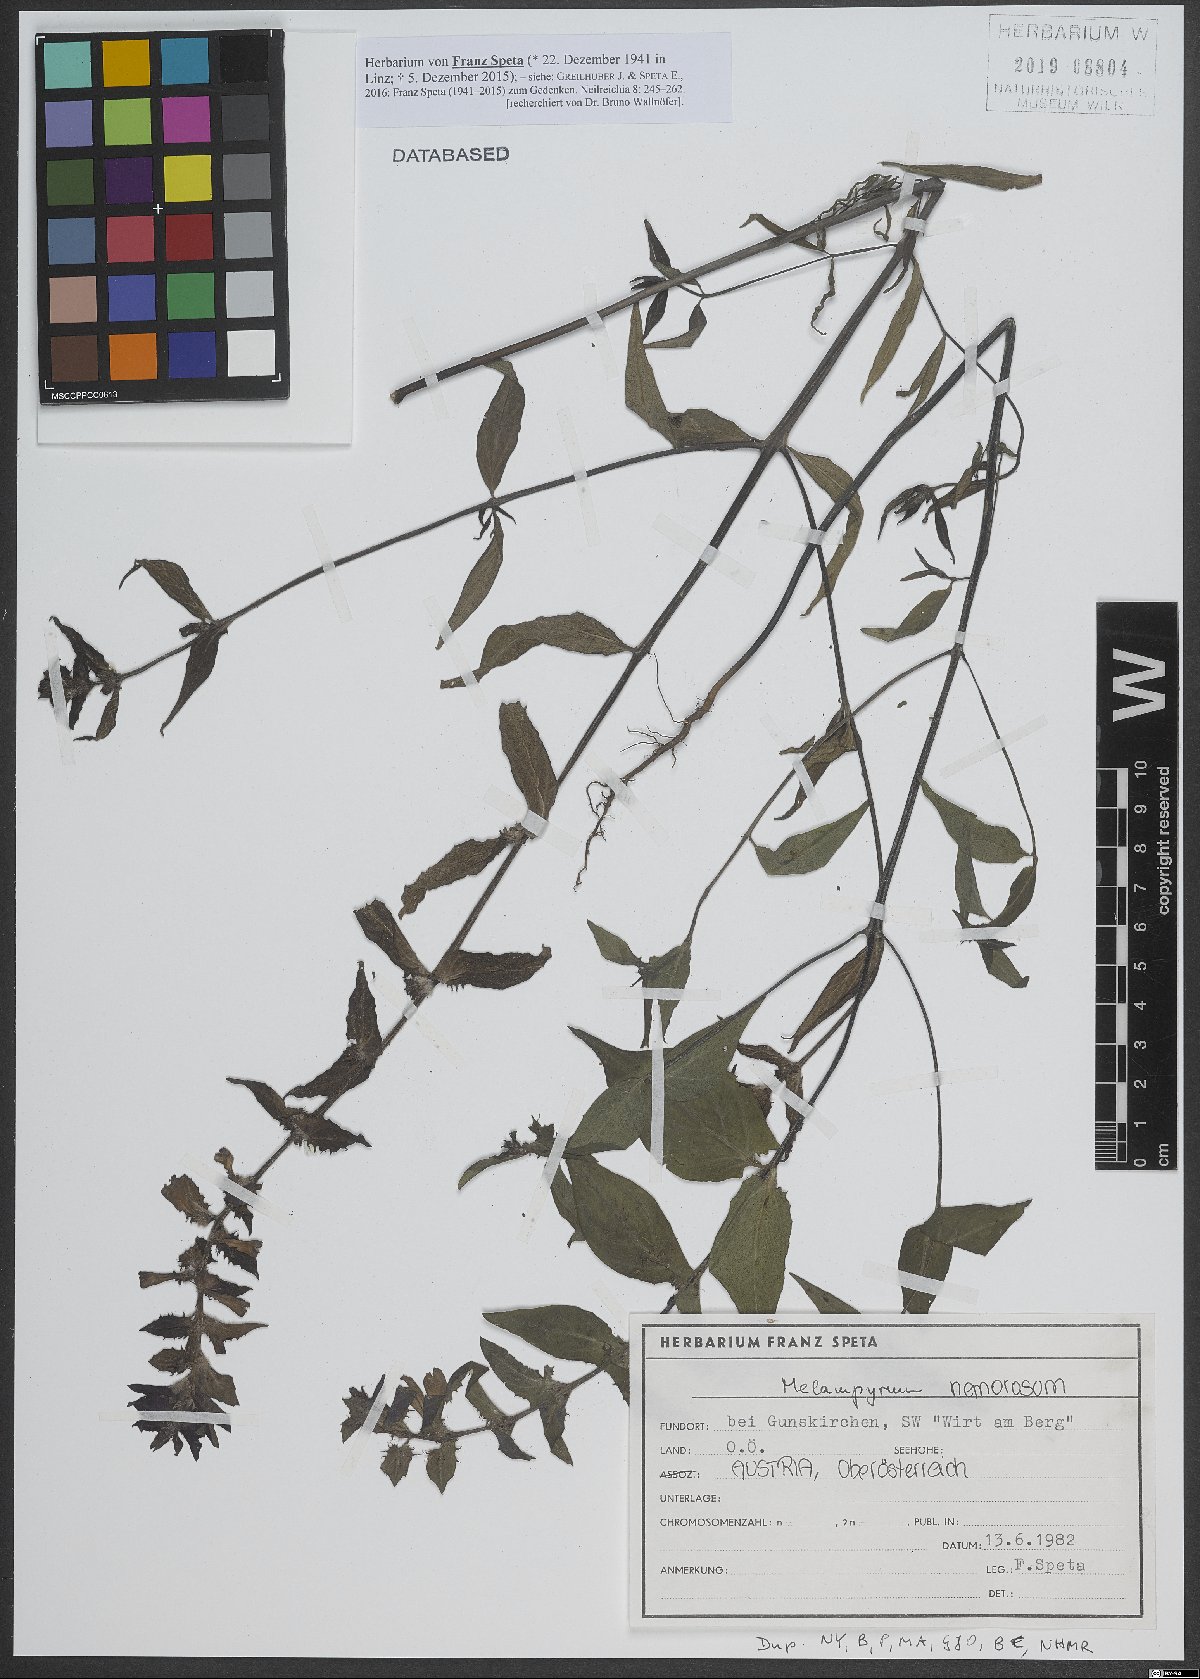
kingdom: Plantae
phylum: Tracheophyta
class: Magnoliopsida
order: Lamiales
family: Orobanchaceae
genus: Melampyrum
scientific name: Melampyrum nemorosum
